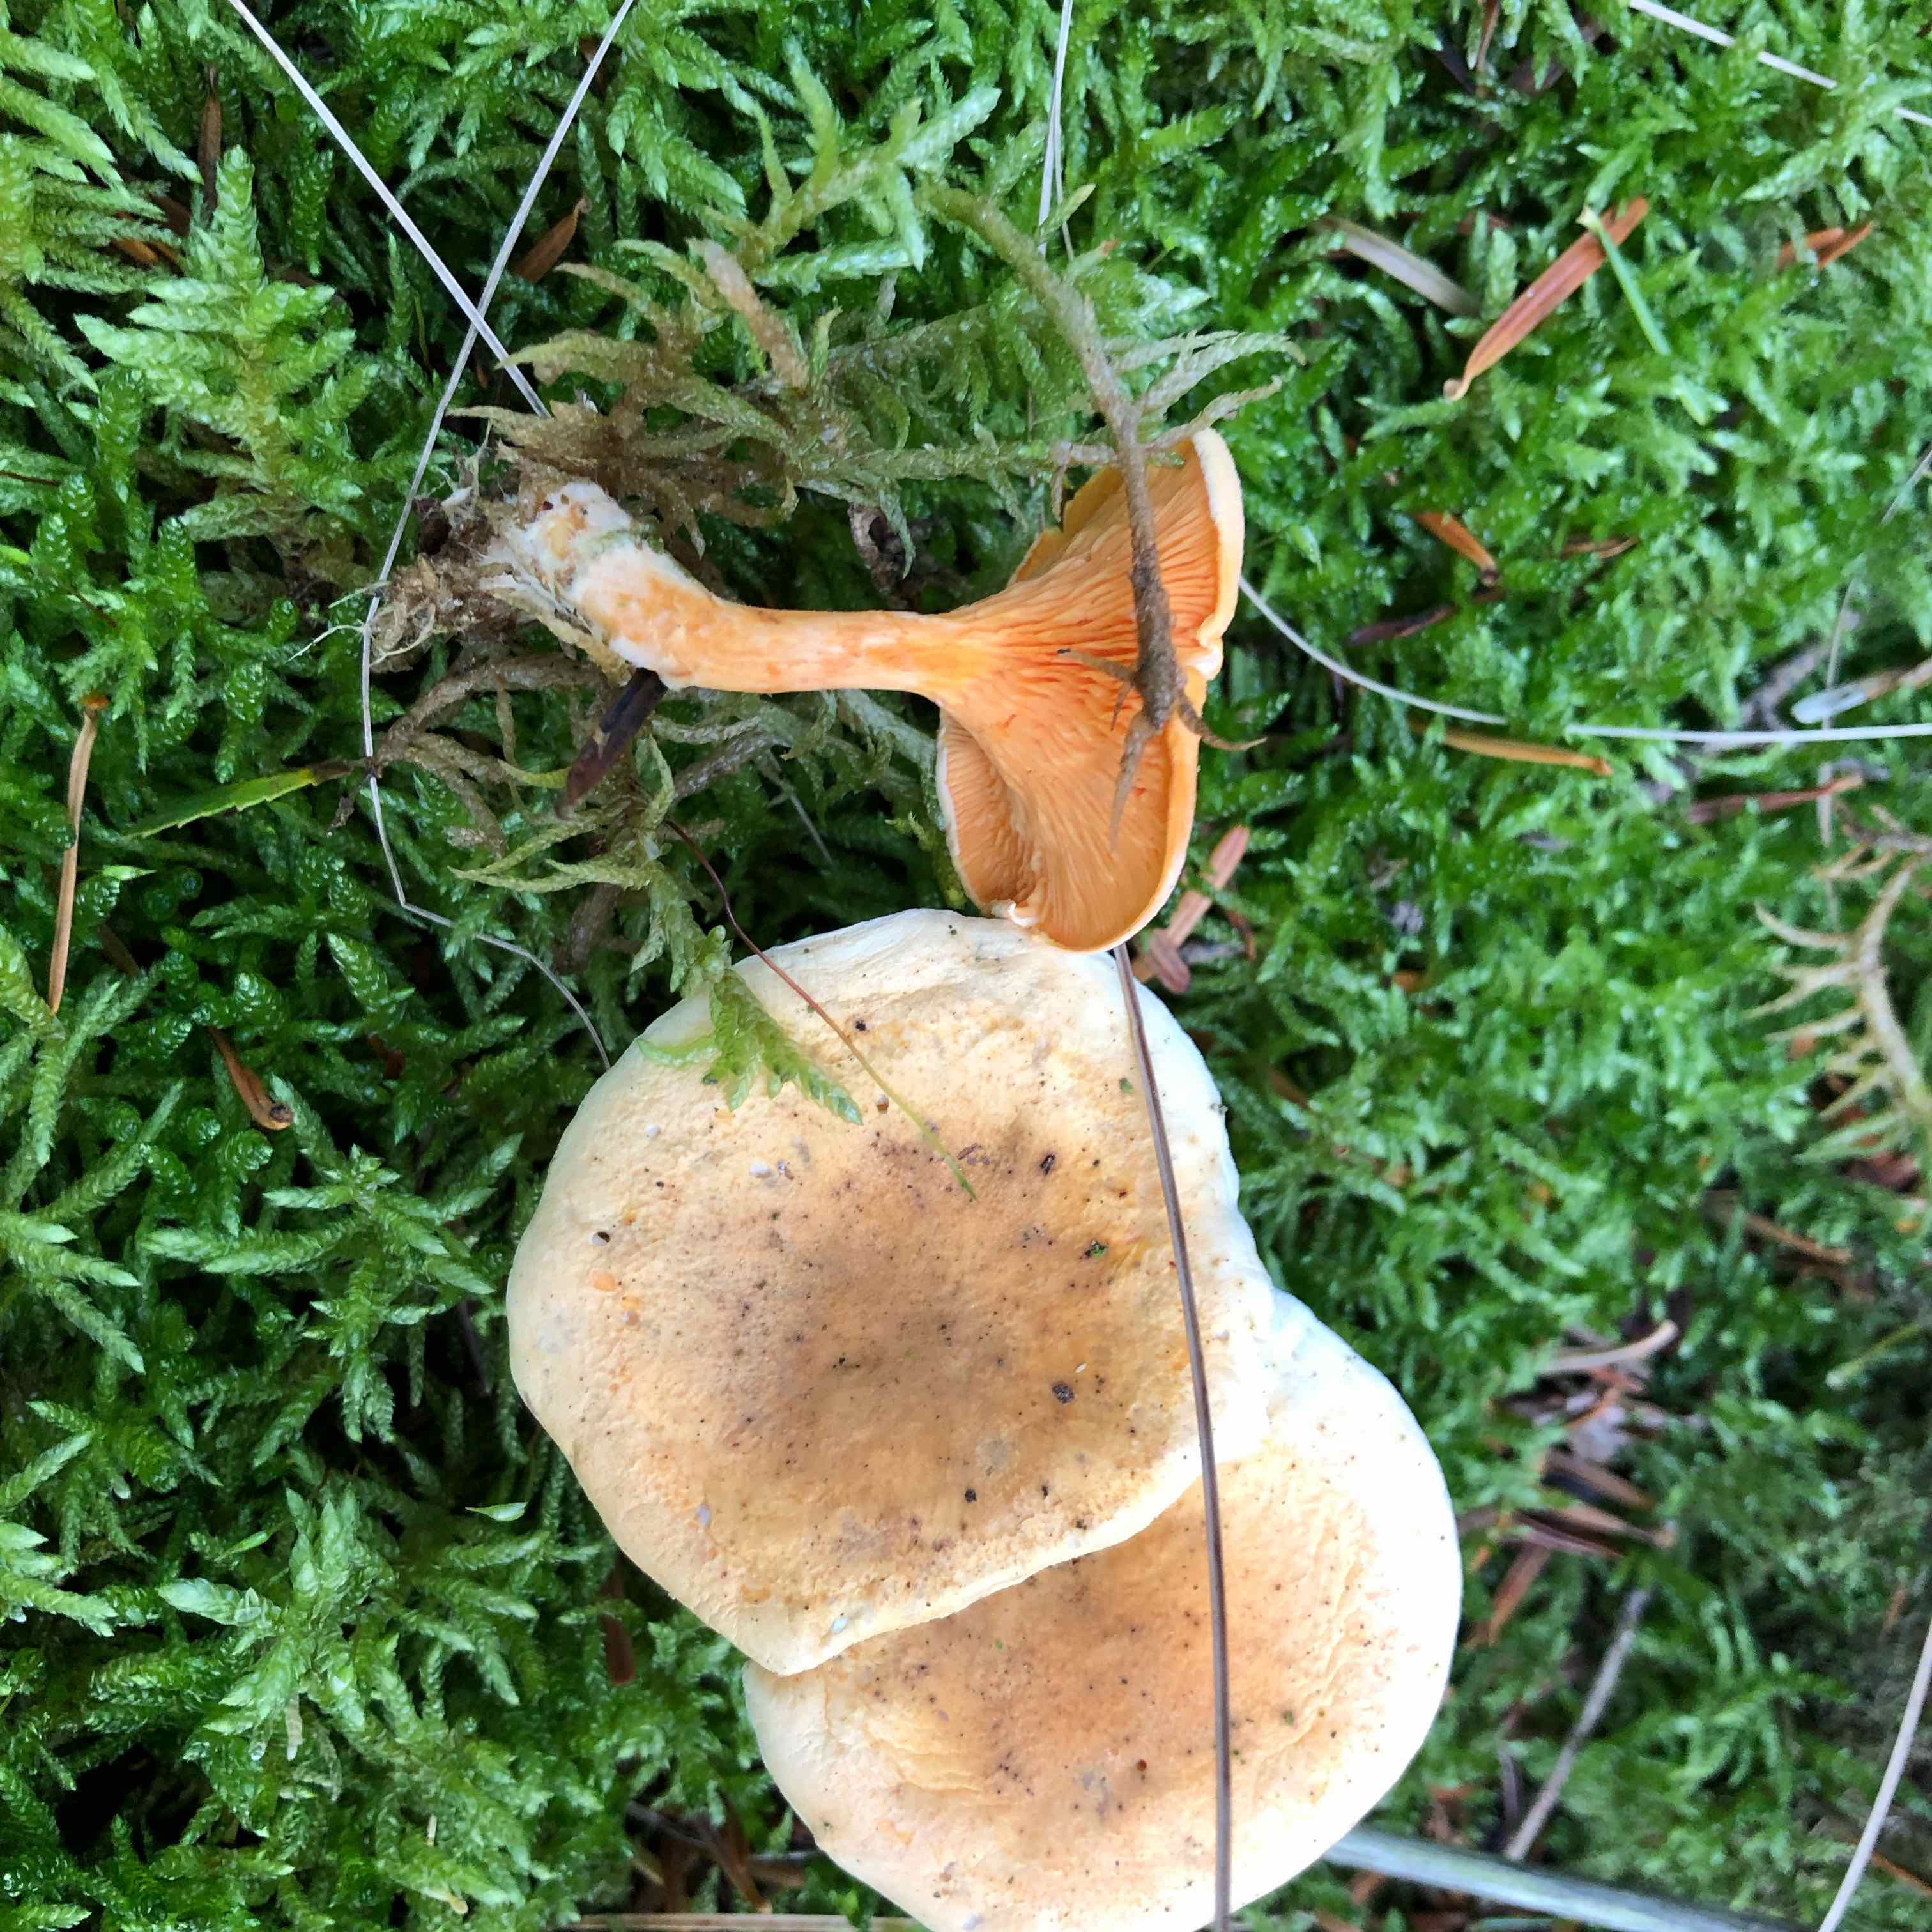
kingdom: Fungi
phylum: Basidiomycota
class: Agaricomycetes
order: Boletales
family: Hygrophoropsidaceae
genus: Hygrophoropsis
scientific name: Hygrophoropsis aurantiaca
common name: almindelig orangekantarel
